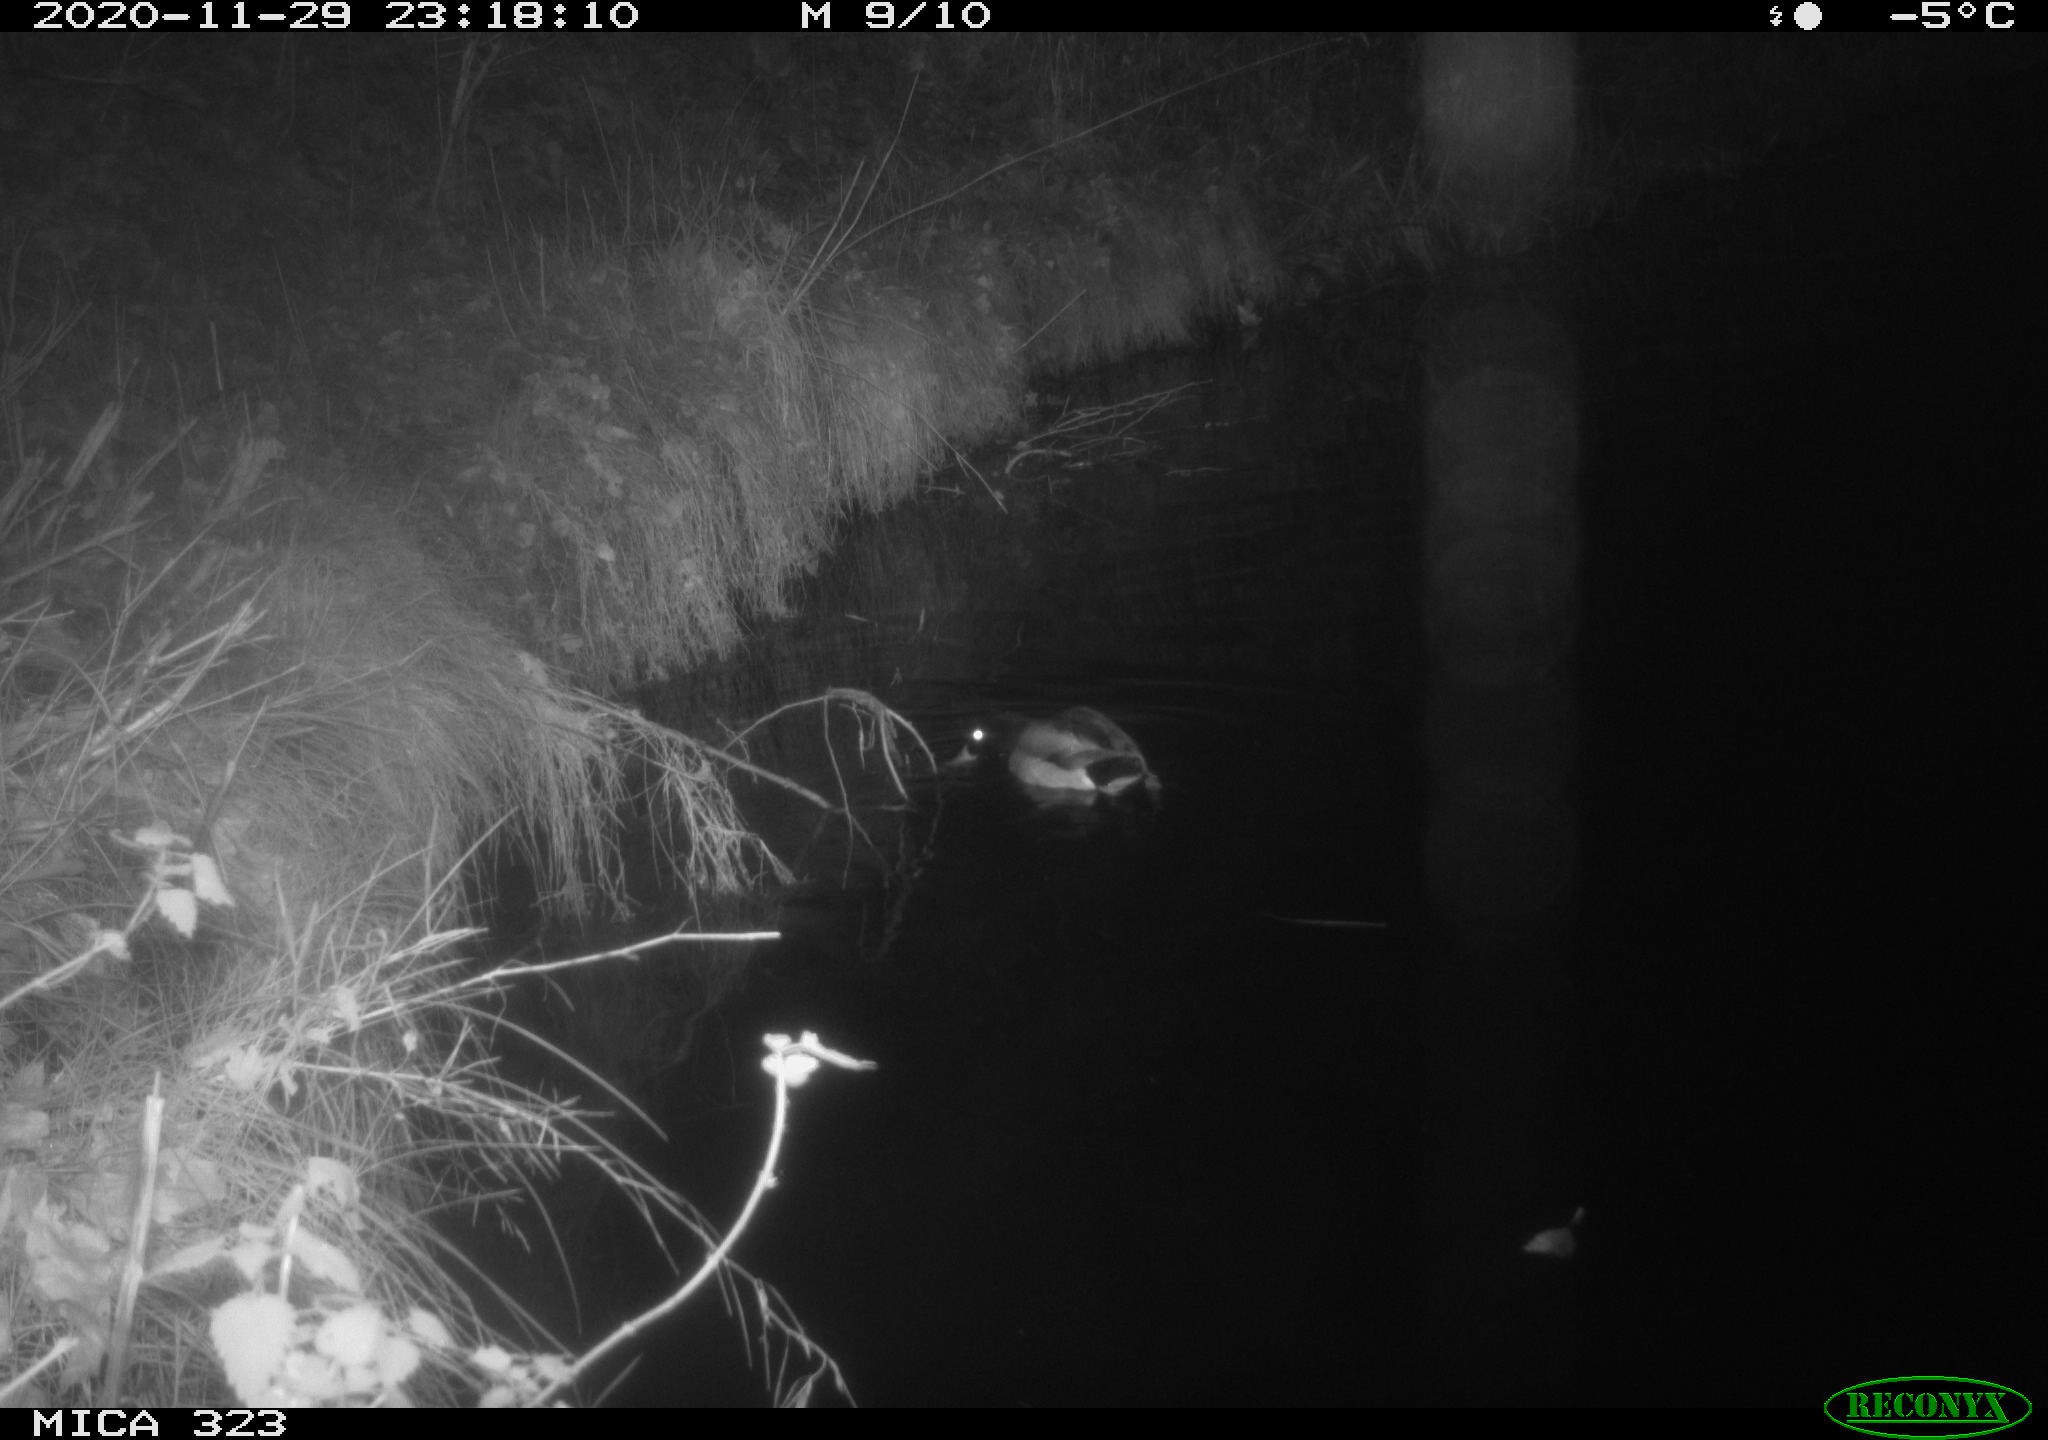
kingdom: Animalia
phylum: Chordata
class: Aves
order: Anseriformes
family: Anatidae
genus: Anas
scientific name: Anas platyrhynchos
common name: Mallard
